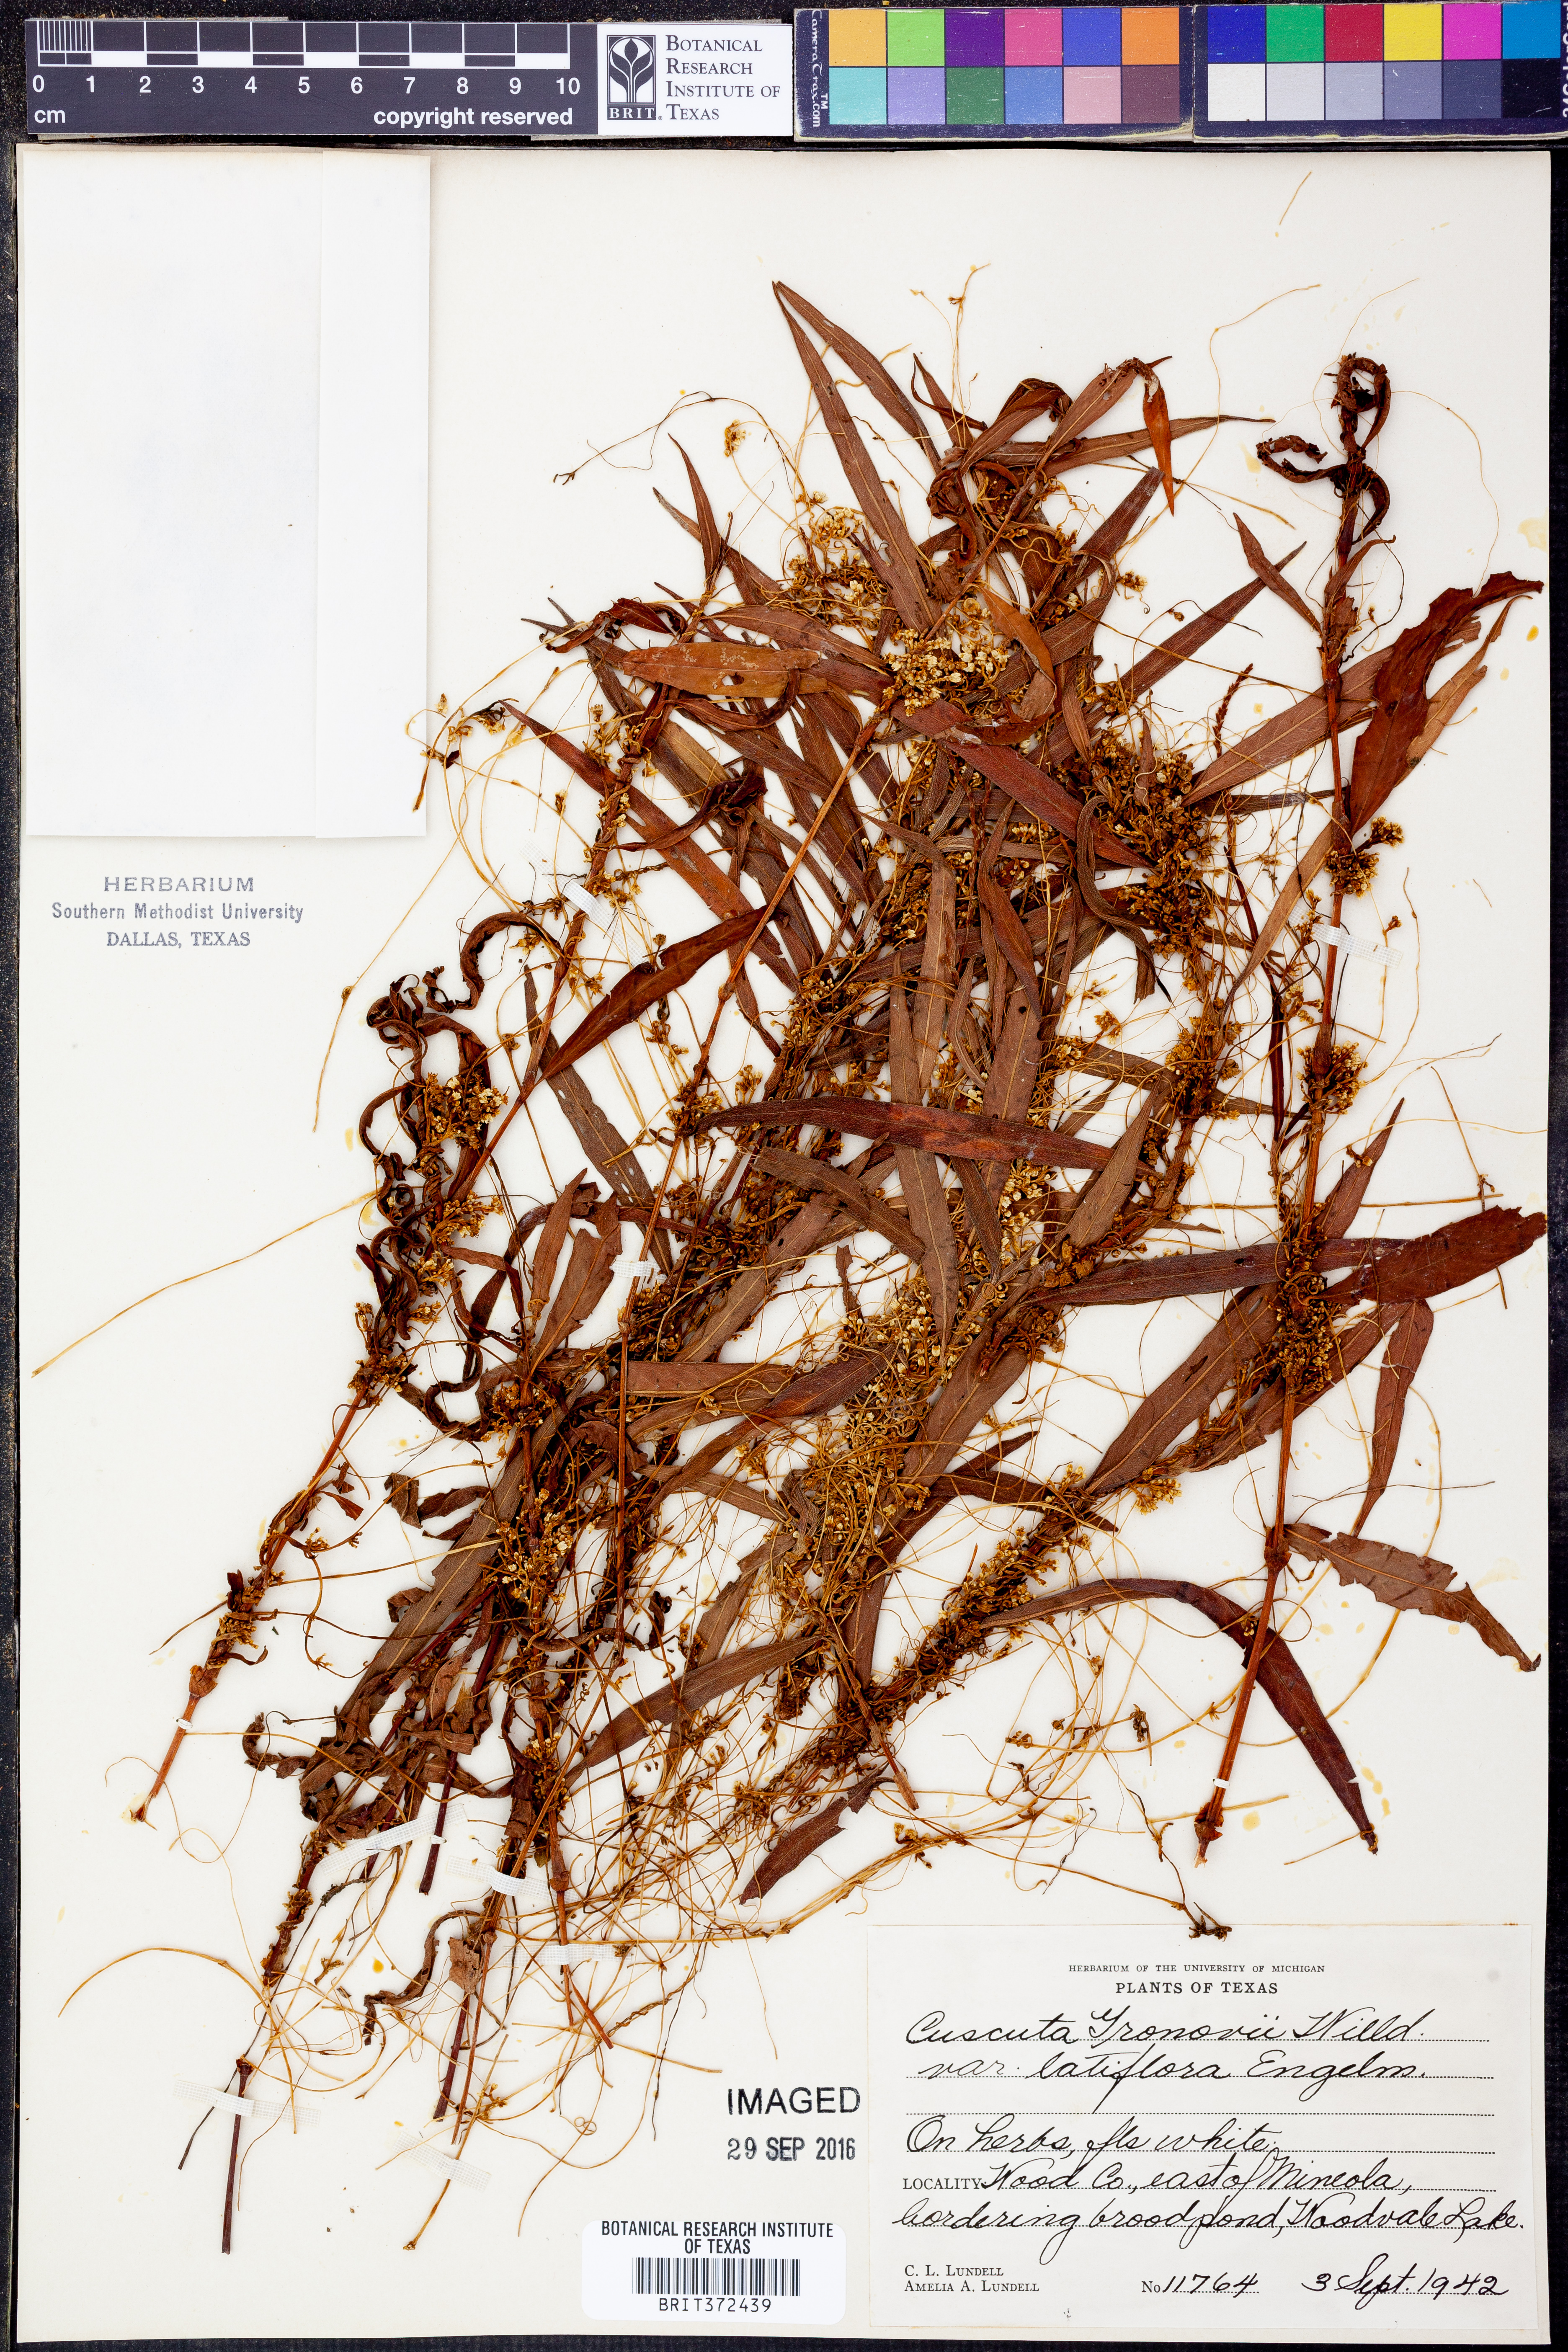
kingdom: Plantae
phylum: Tracheophyta
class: Magnoliopsida
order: Solanales
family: Convolvulaceae
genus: Cuscuta
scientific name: Cuscuta gronovii
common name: Common dodder
